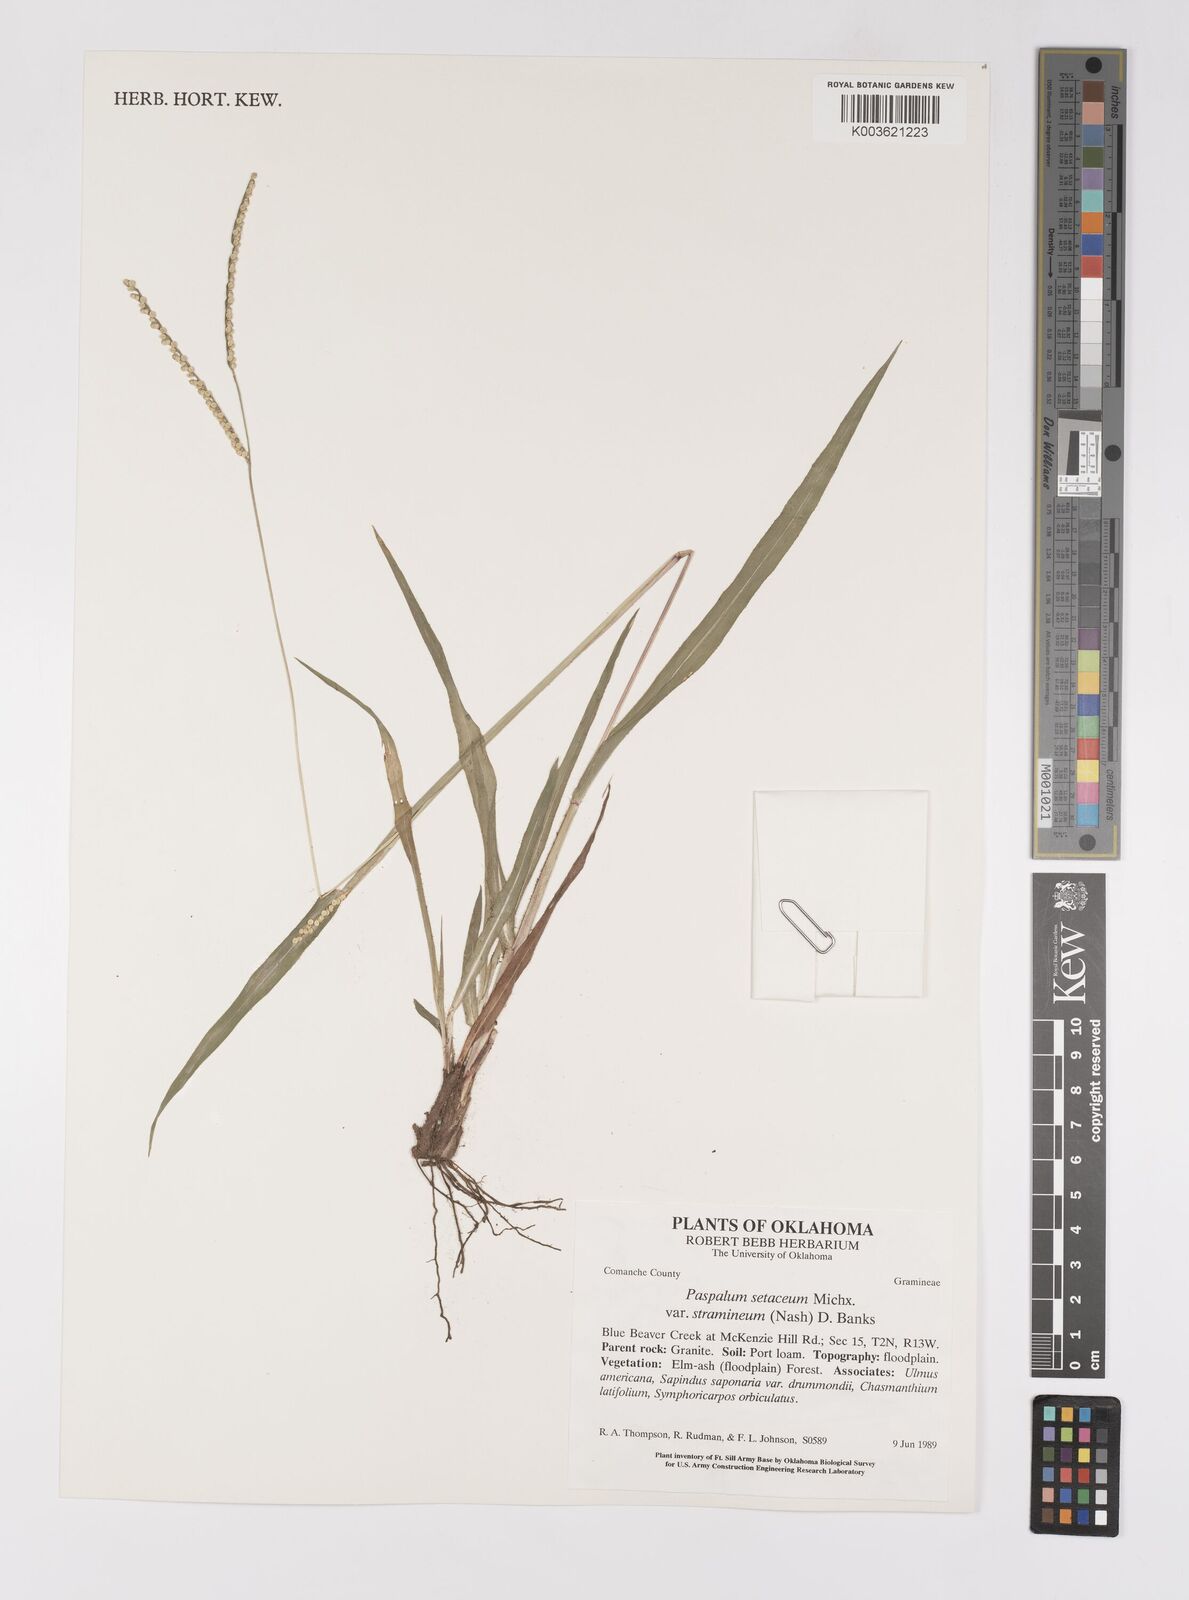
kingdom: Plantae
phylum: Tracheophyta
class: Liliopsida
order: Poales
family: Poaceae
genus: Paspalum
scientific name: Paspalum setaceum
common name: Slender paspalum
